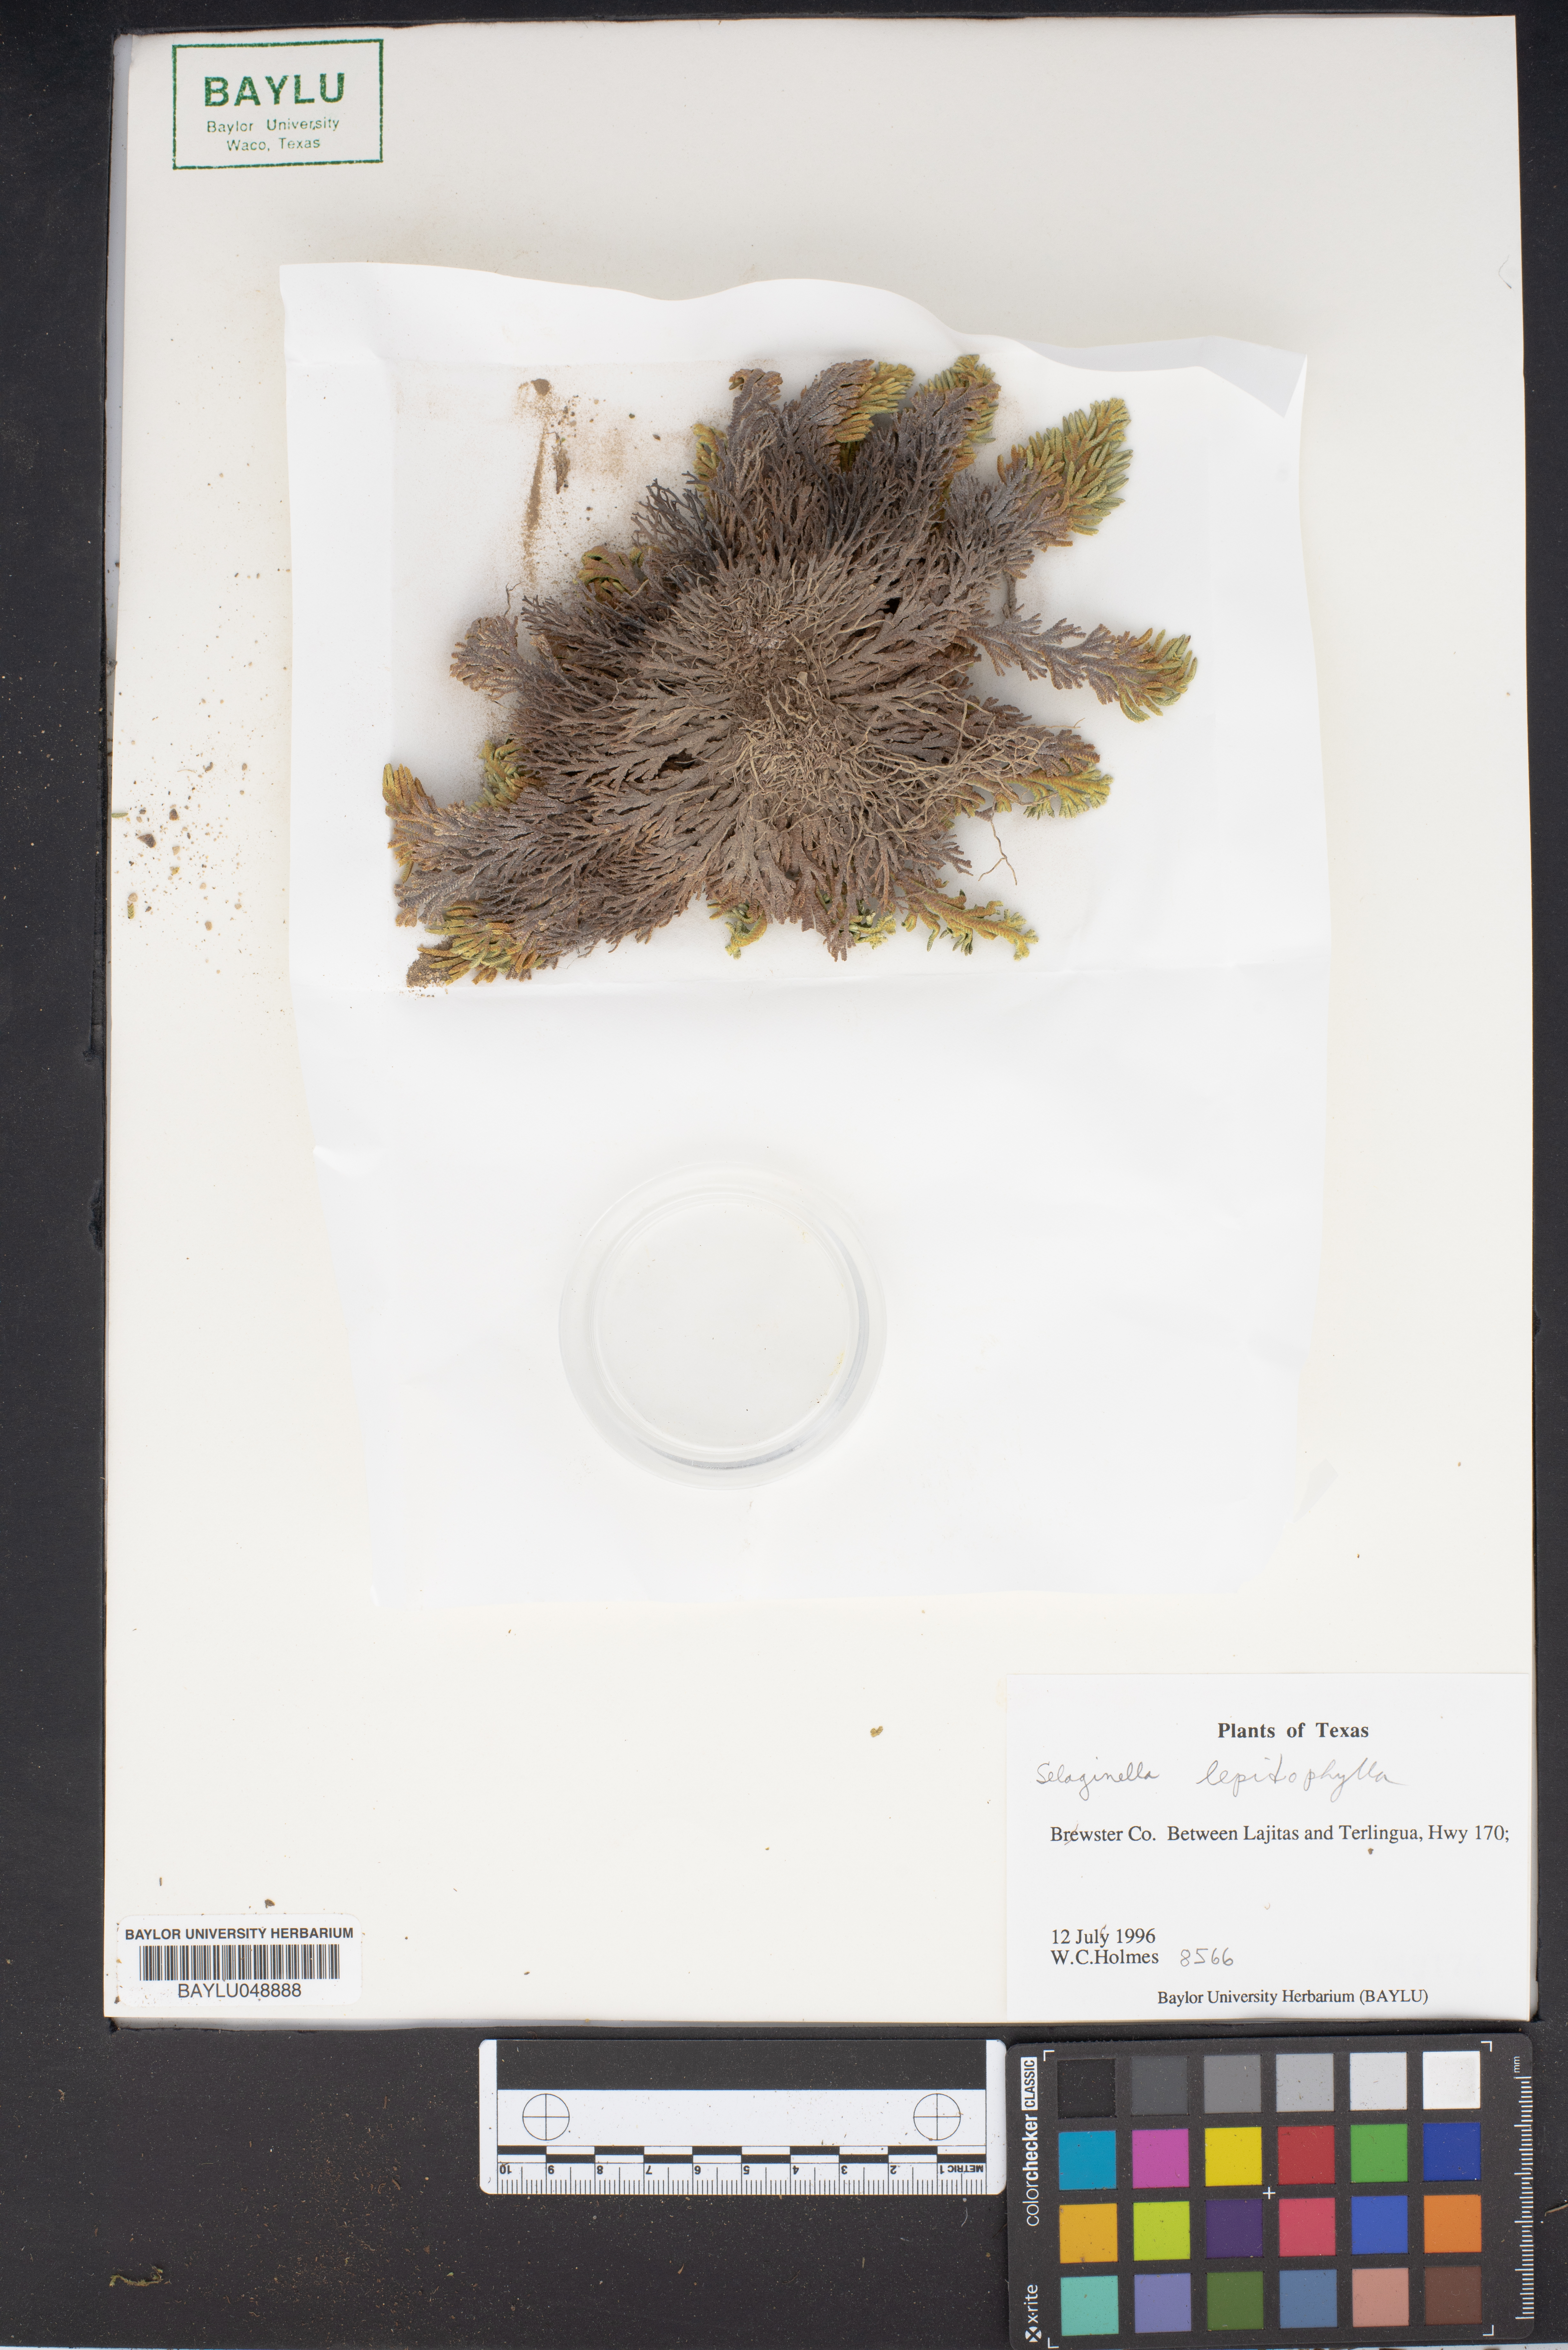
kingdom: Plantae
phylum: Tracheophyta
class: Lycopodiopsida
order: Selaginellales
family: Selaginellaceae
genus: Selaginella
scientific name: Selaginella lepidophylla
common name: Rose-of-jericho
